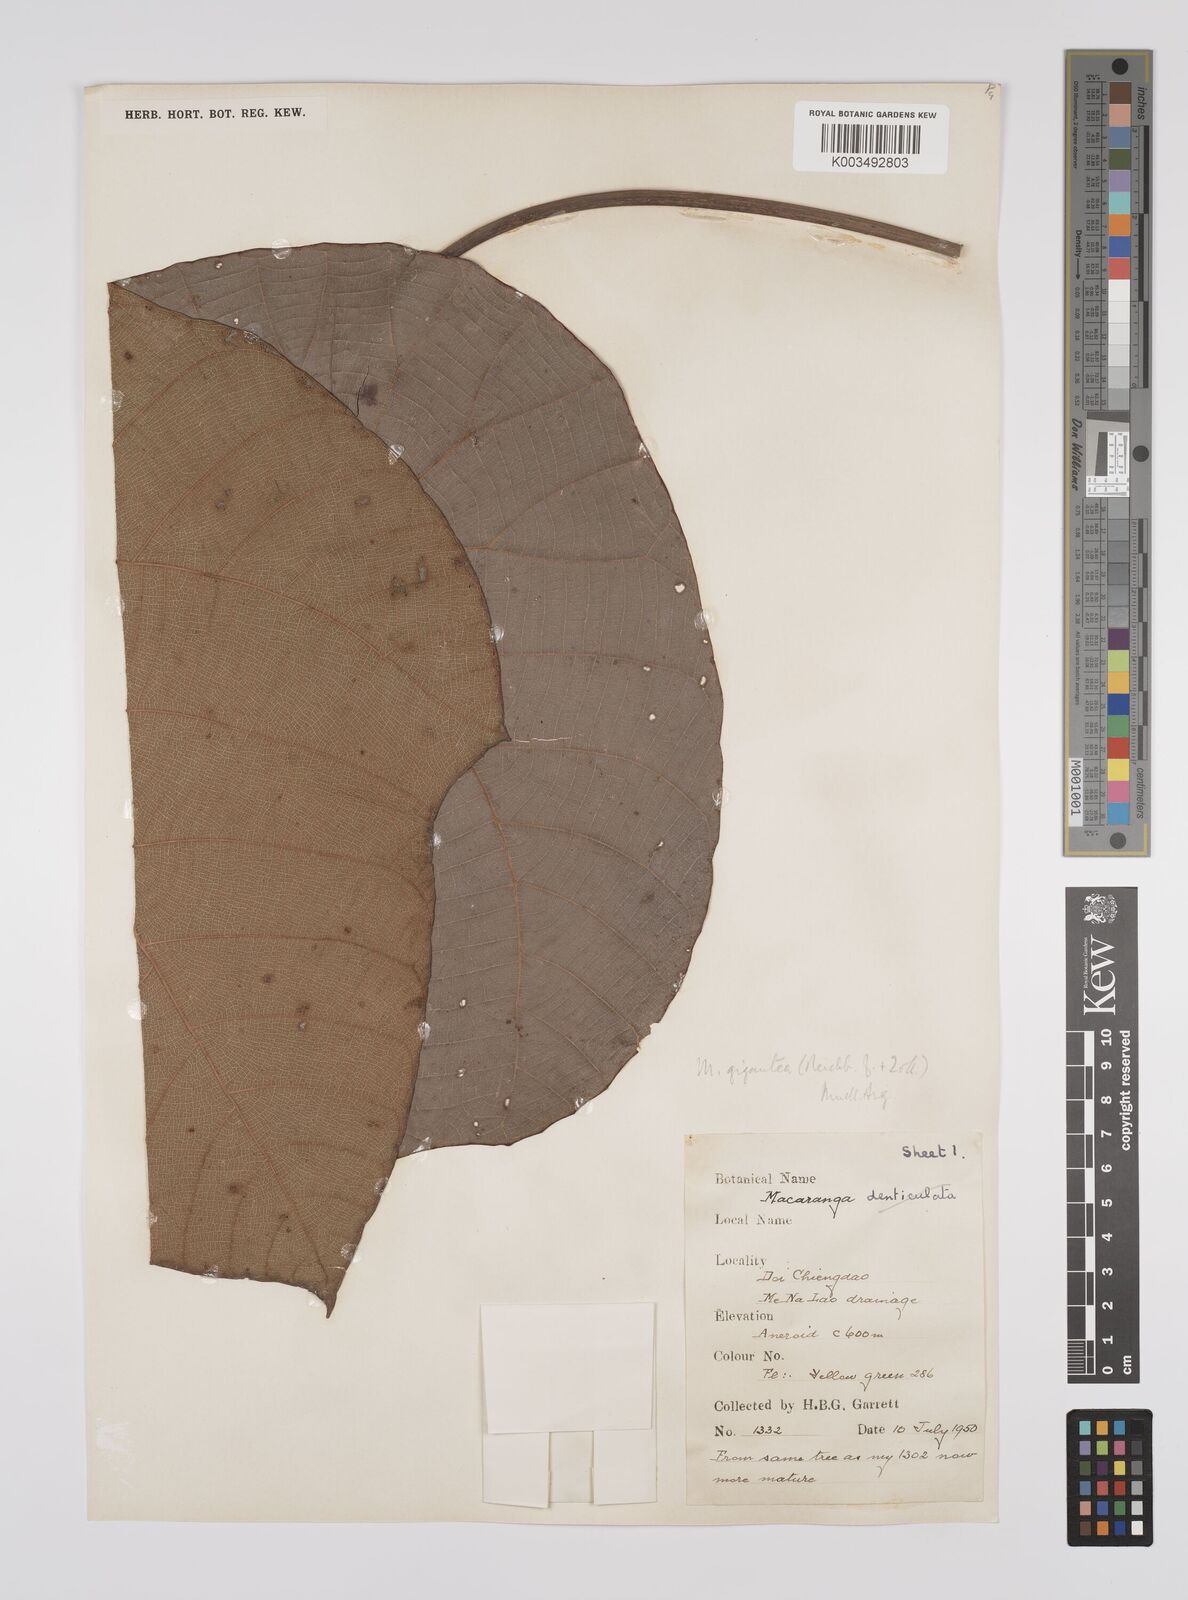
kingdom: Plantae
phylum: Tracheophyta
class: Magnoliopsida
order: Malpighiales
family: Euphorbiaceae
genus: Macaranga
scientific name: Macaranga siamensis
